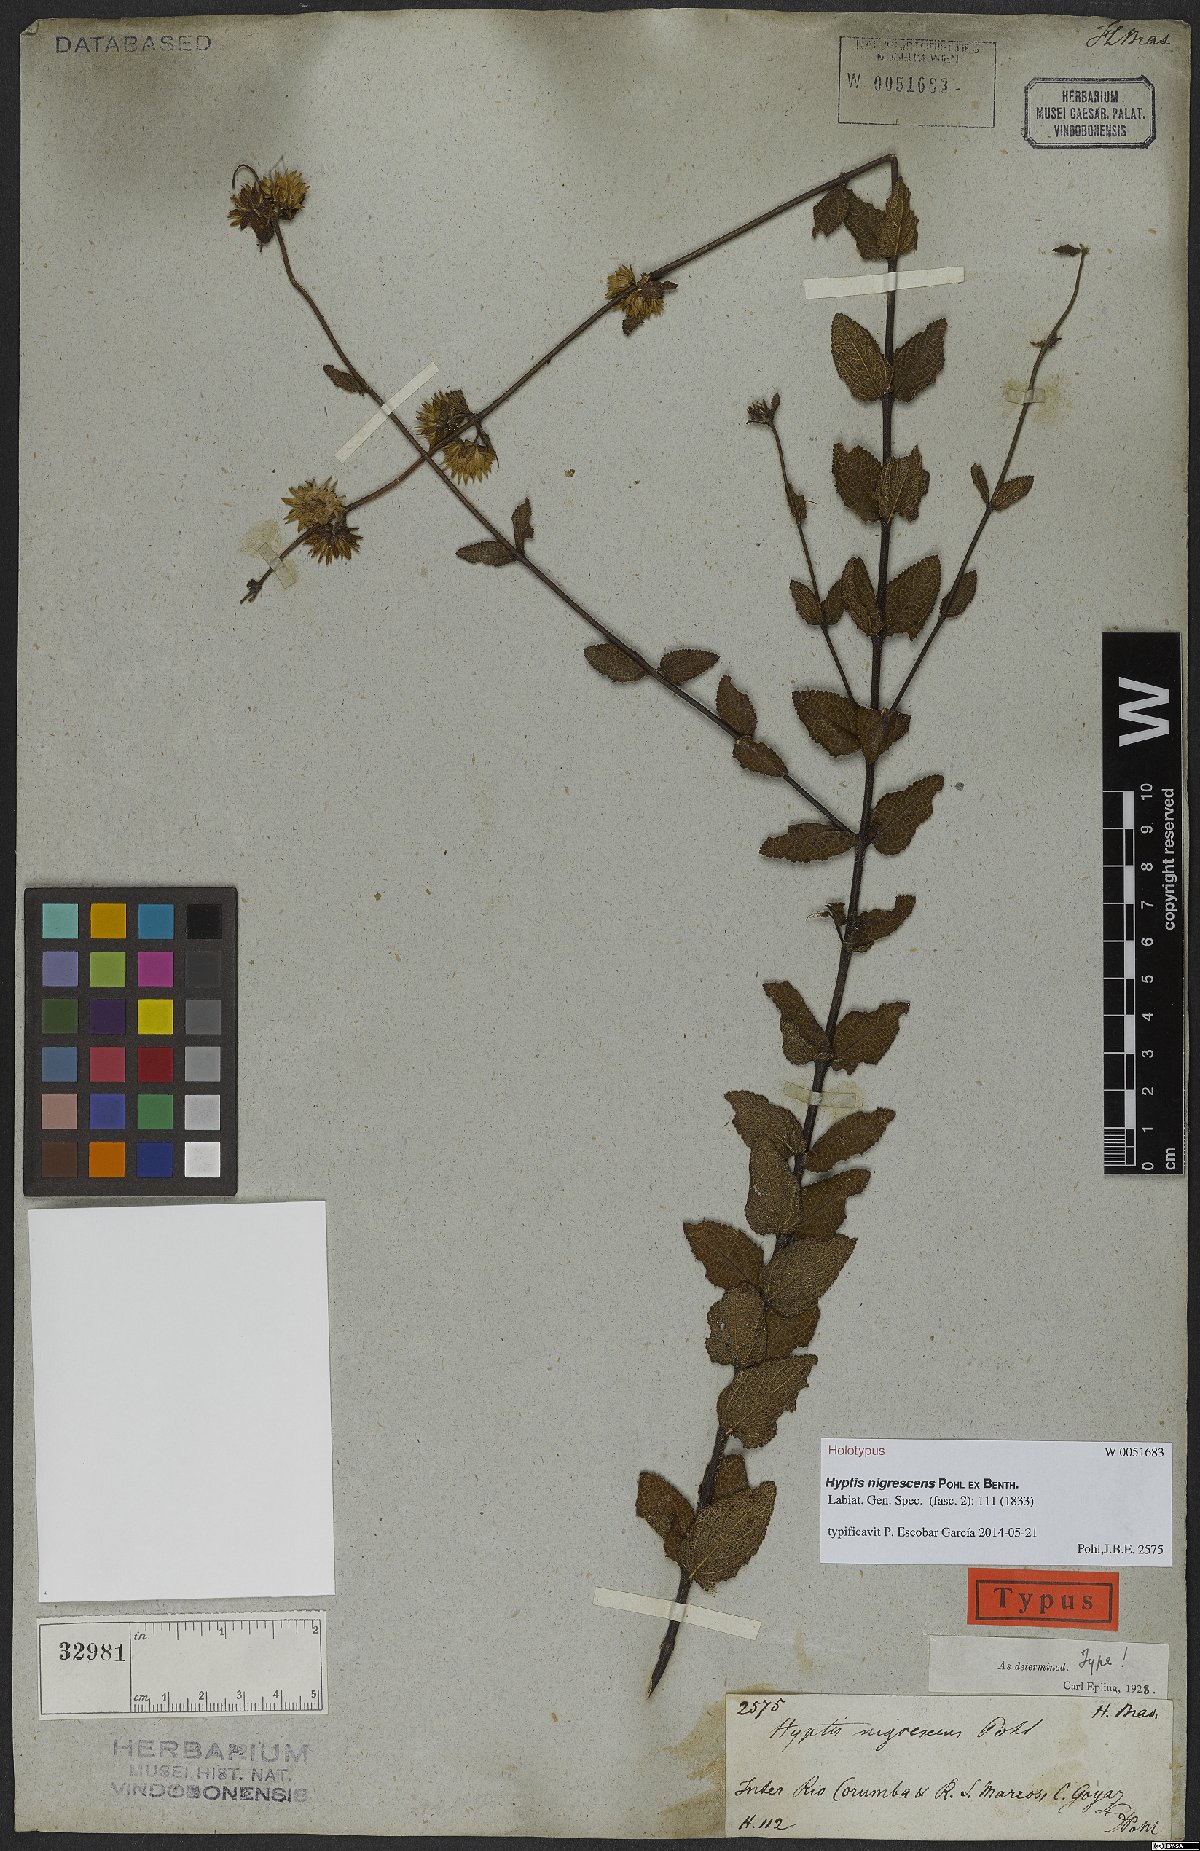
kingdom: Plantae
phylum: Tracheophyta
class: Magnoliopsida
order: Lamiales
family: Lamiaceae
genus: Hyptis
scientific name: Hyptis nigrescens
